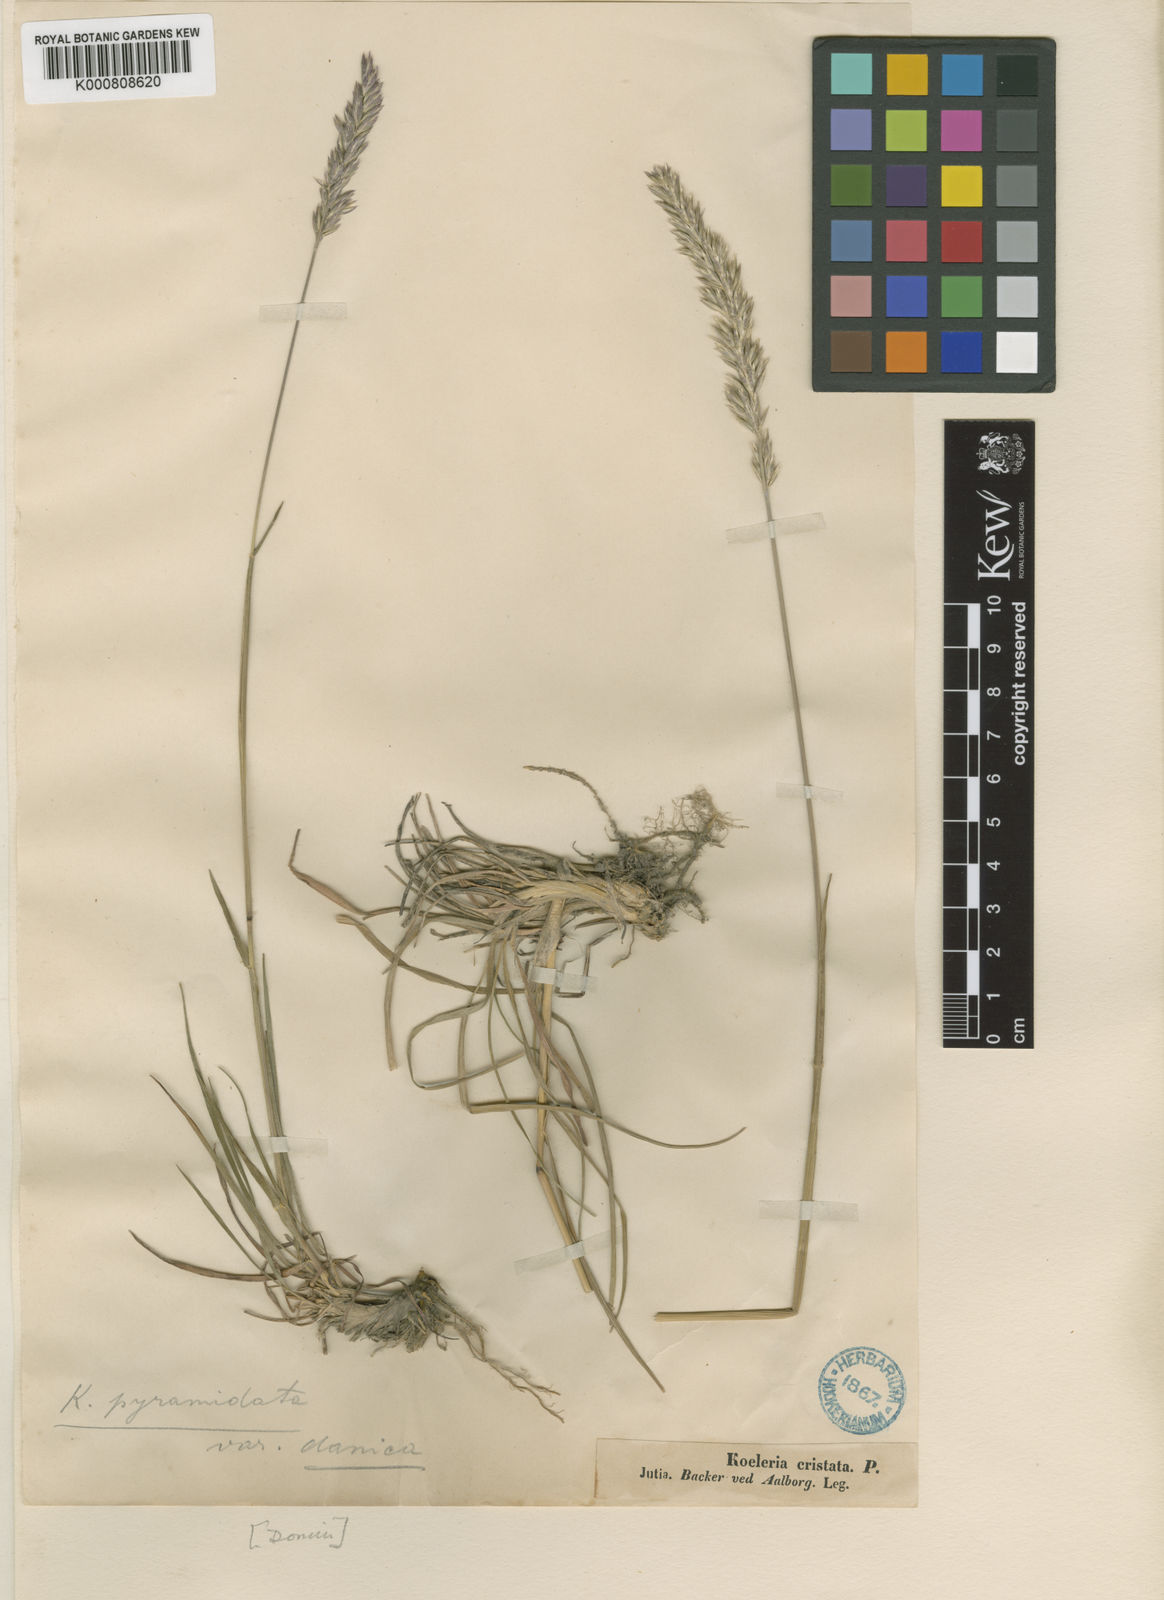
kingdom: Plantae
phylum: Tracheophyta
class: Liliopsida
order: Poales
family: Poaceae
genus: Koeleria
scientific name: Koeleria pyramidata
